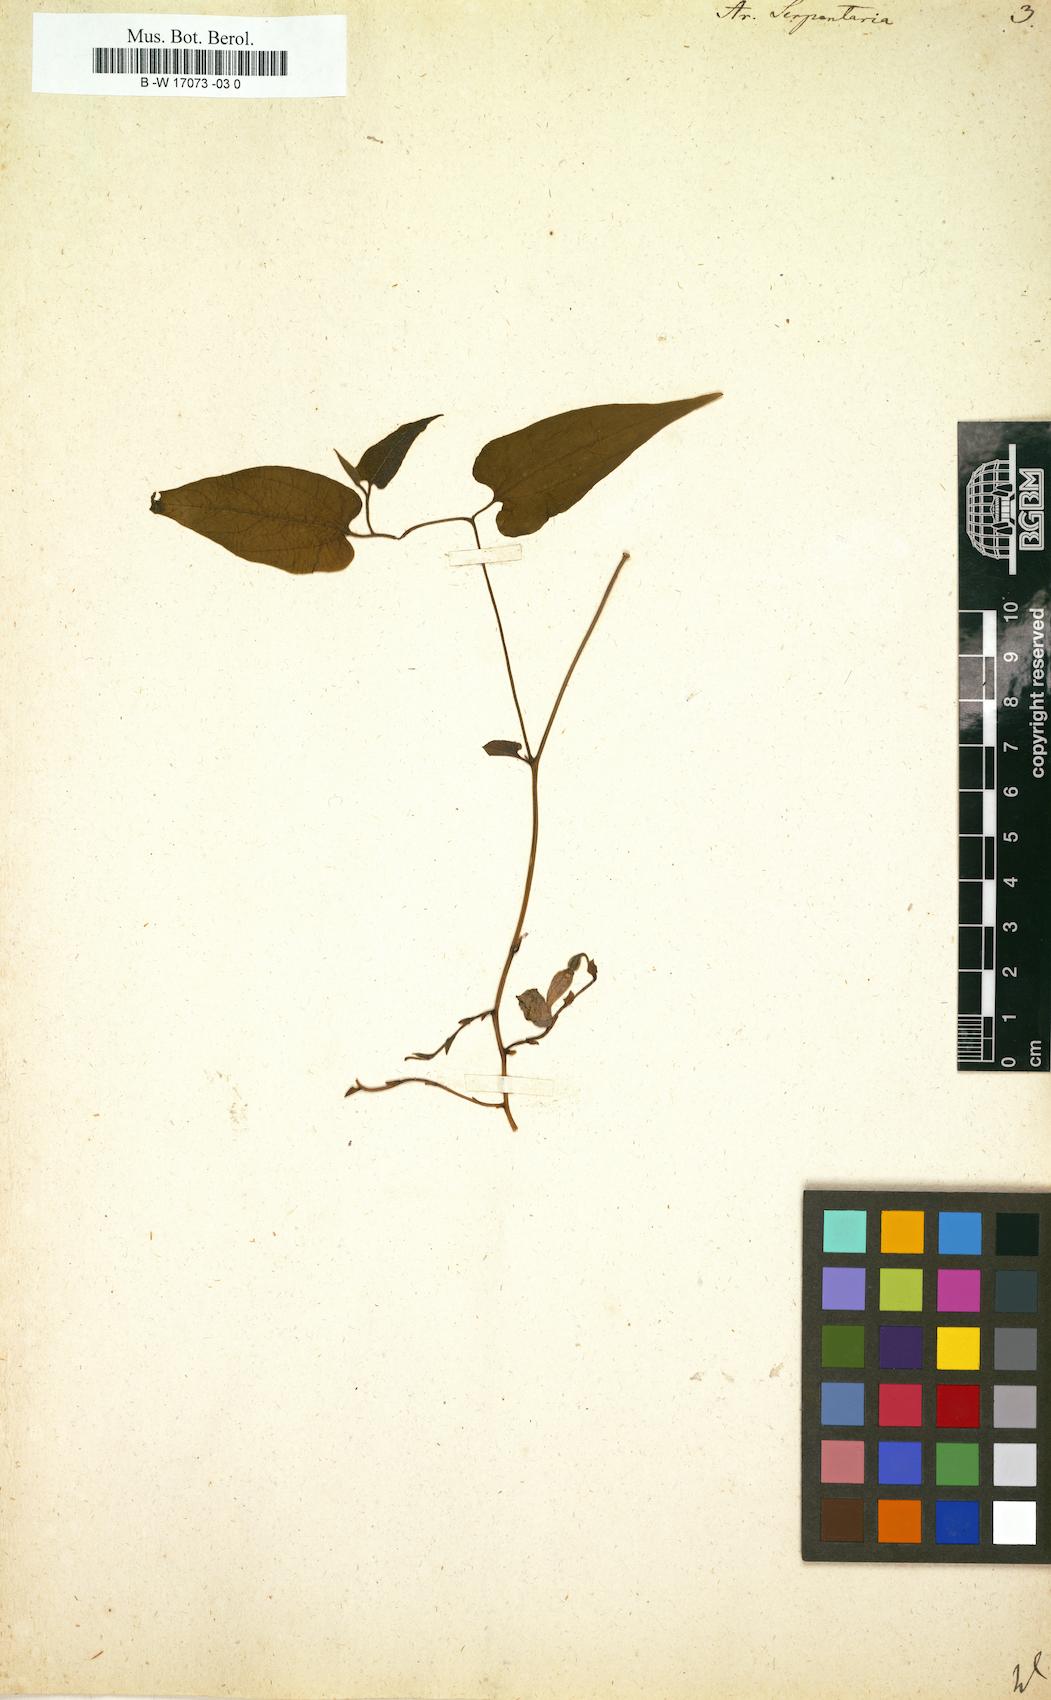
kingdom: Plantae
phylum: Tracheophyta
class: Magnoliopsida
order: Piperales
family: Aristolochiaceae
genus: Endodeca
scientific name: Endodeca serpentaria
